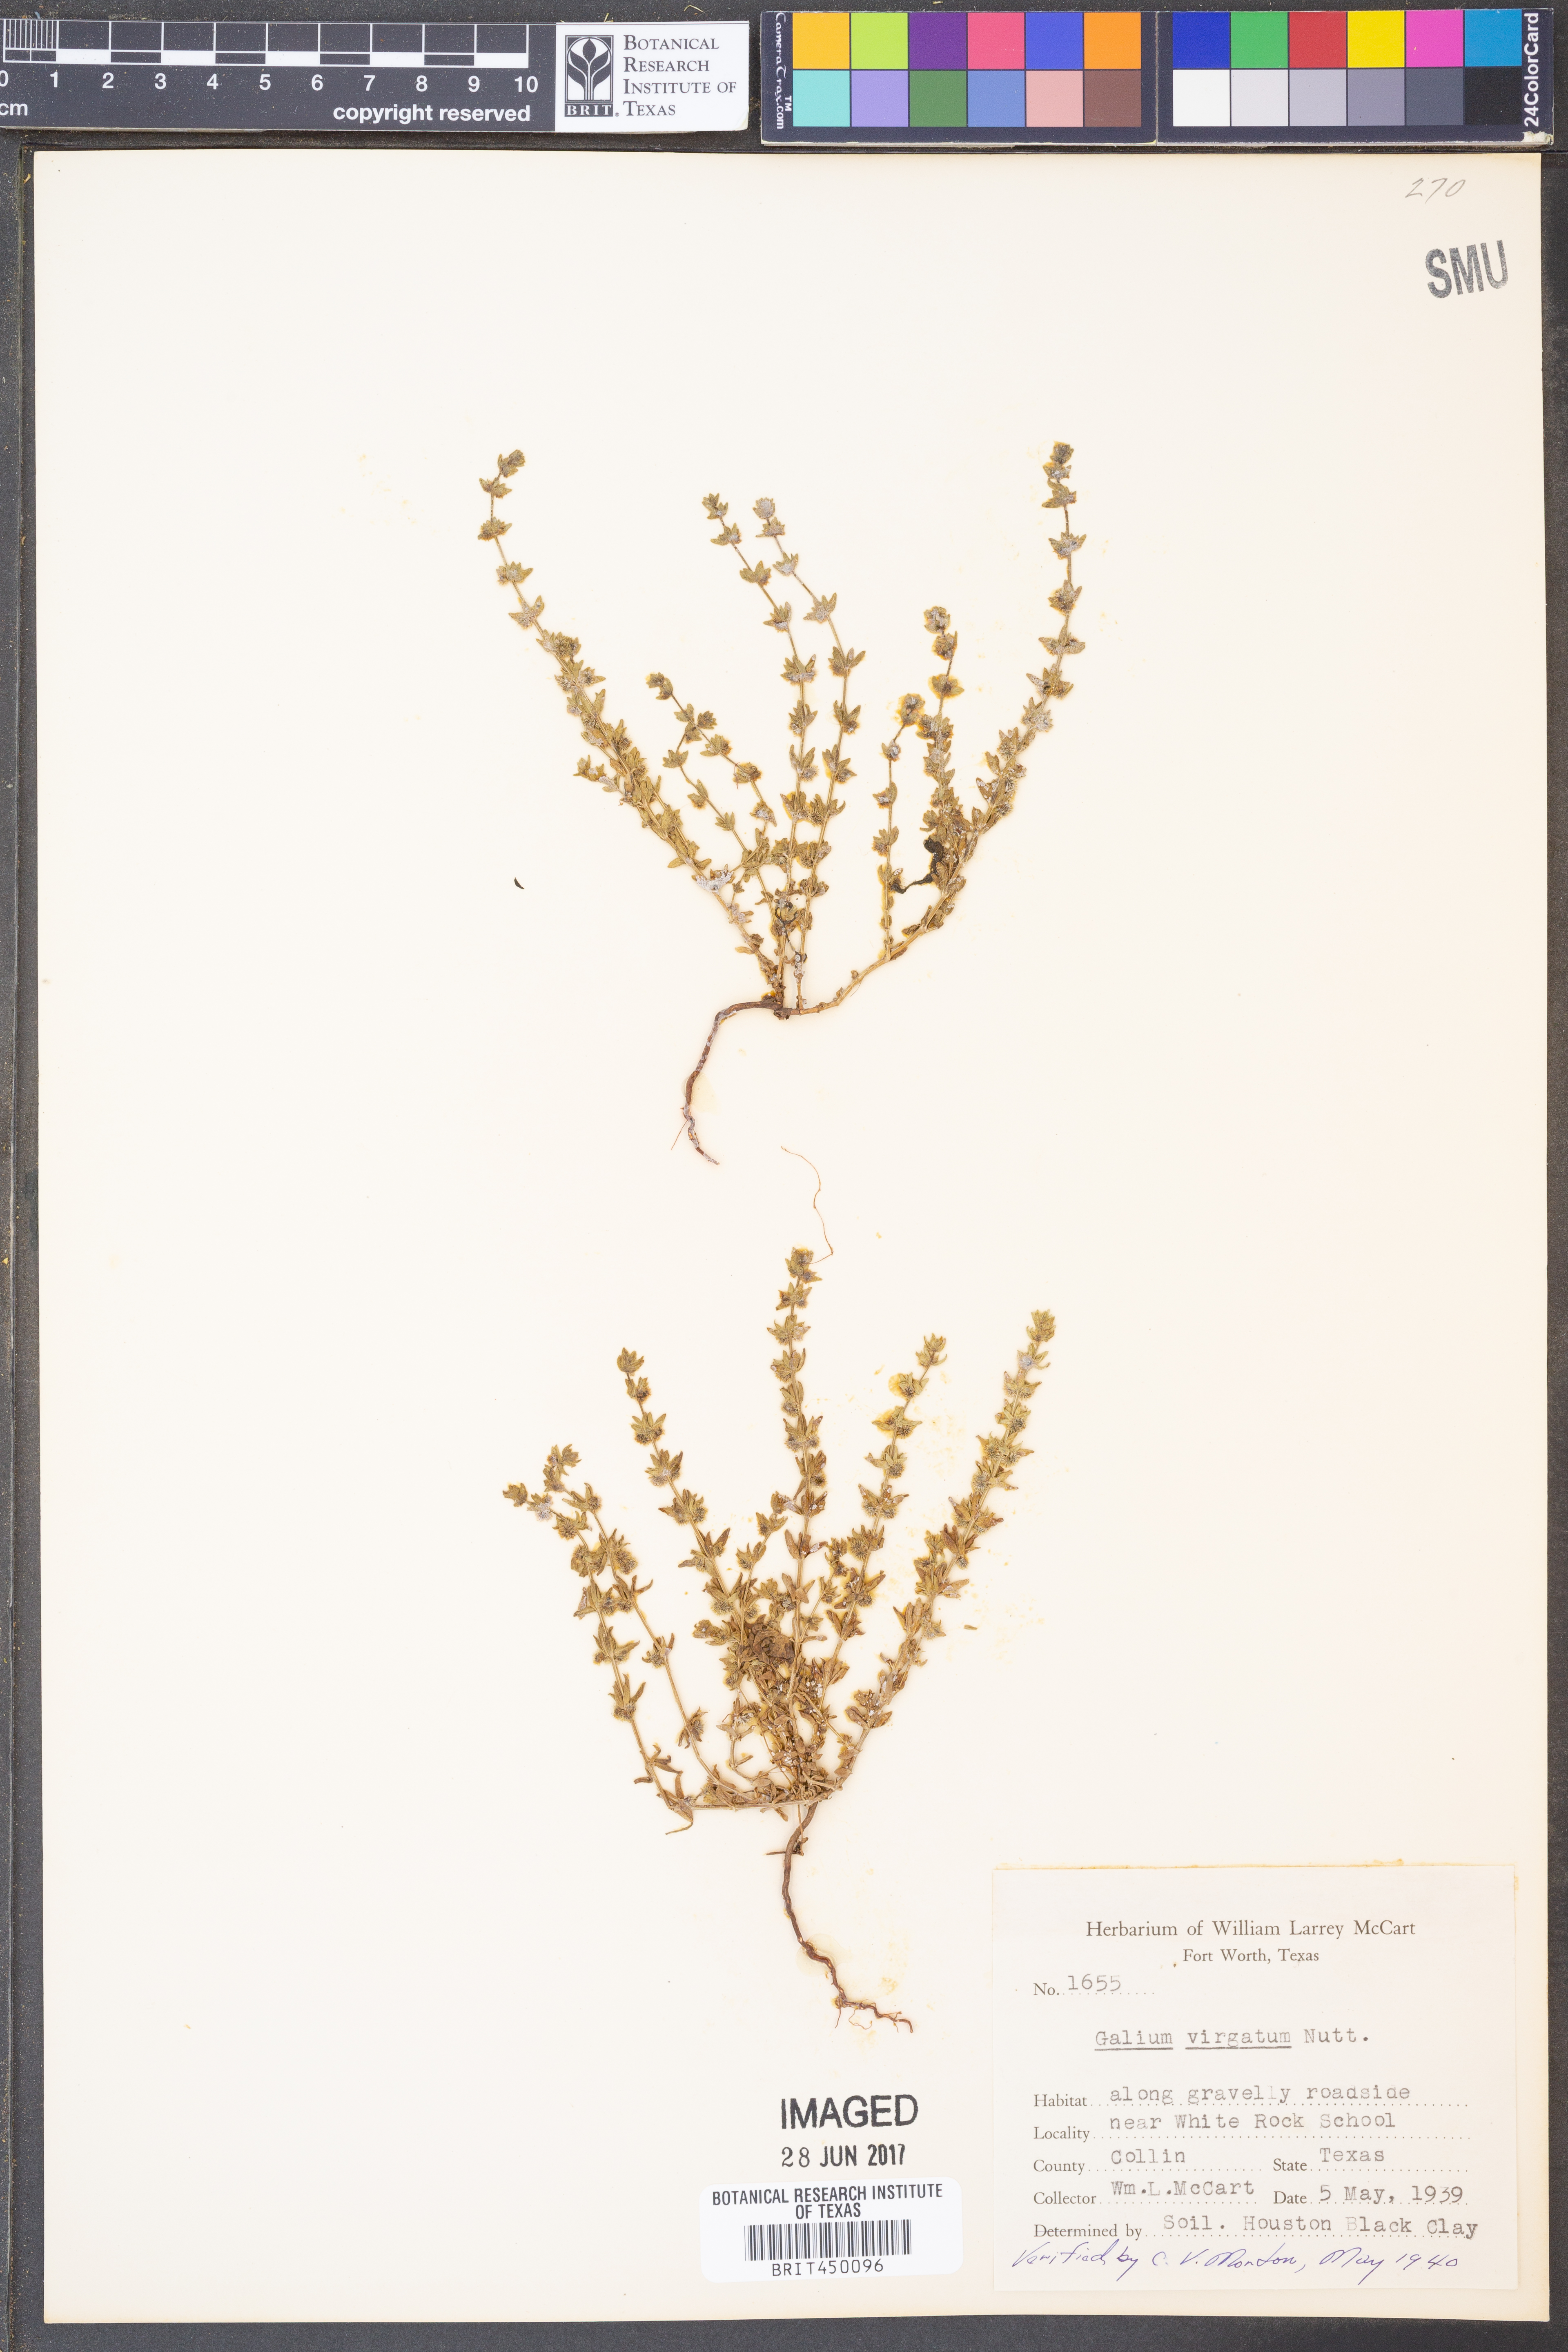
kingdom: Plantae
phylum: Tracheophyta
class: Magnoliopsida
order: Gentianales
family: Rubiaceae
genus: Galium
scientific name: Galium virgatum
